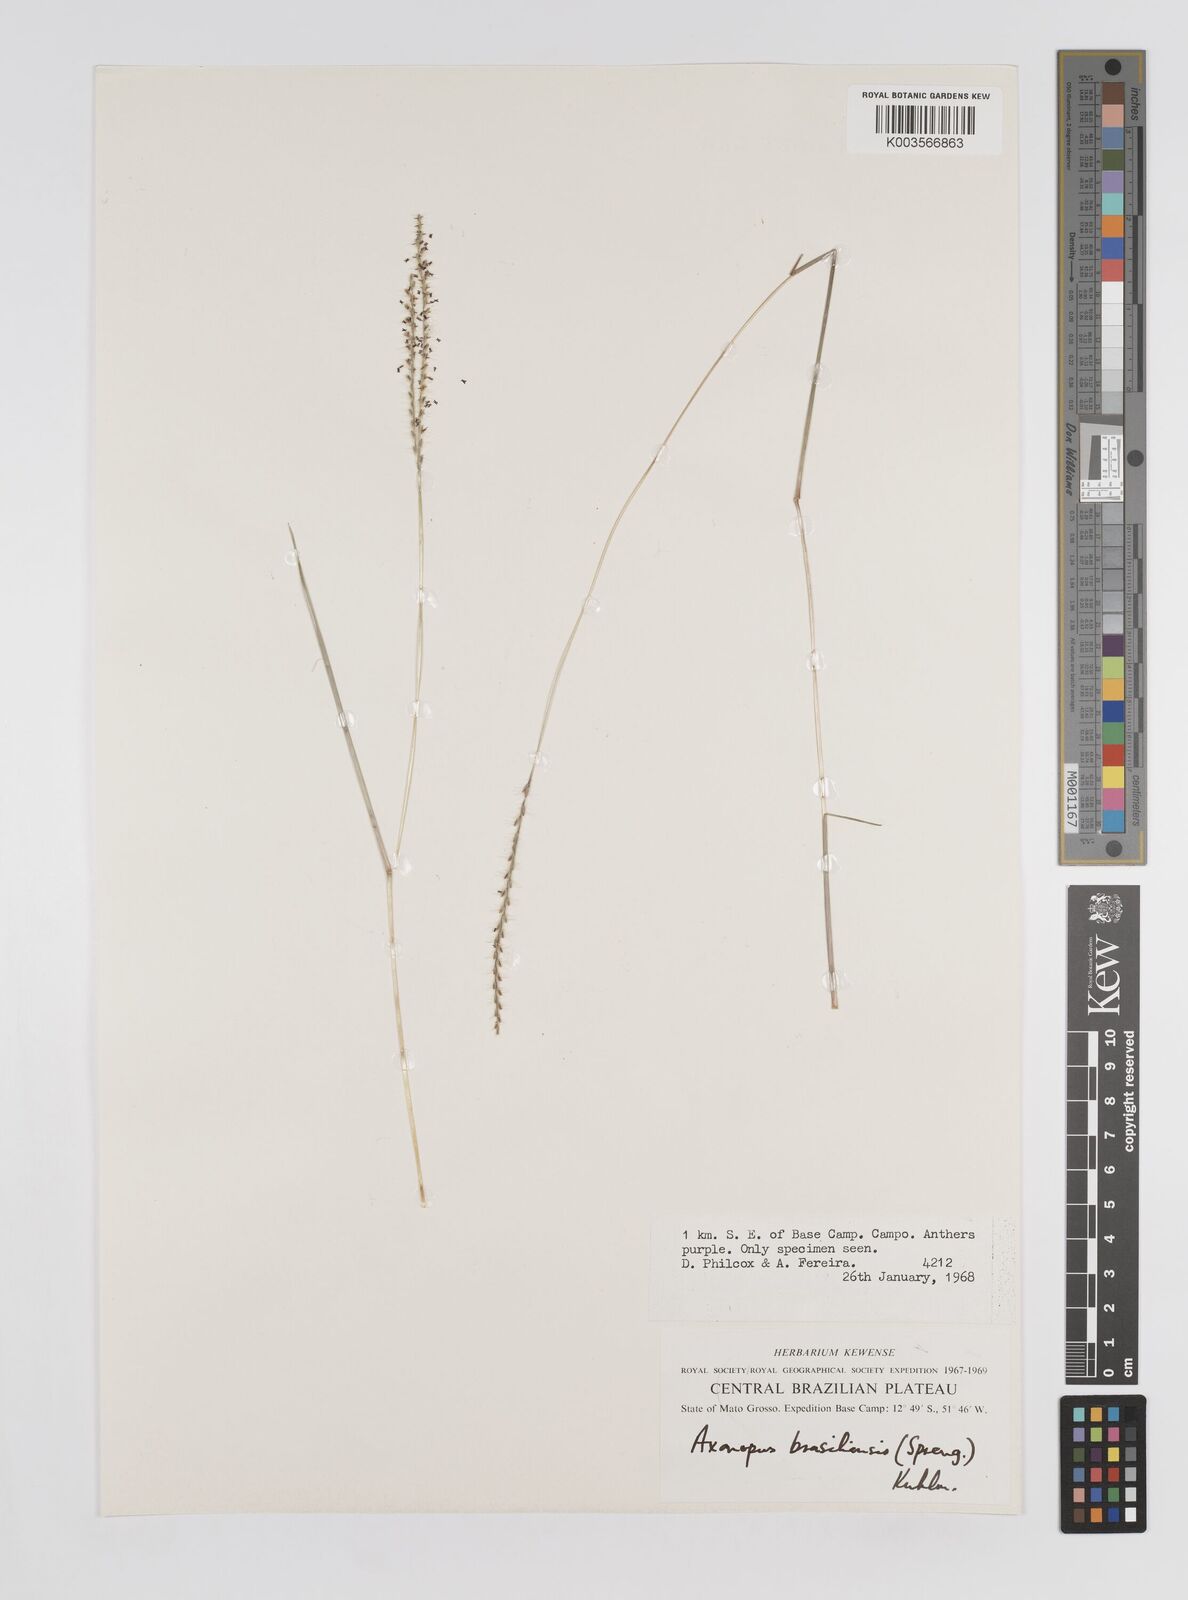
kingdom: Plantae
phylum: Tracheophyta
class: Liliopsida
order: Poales
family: Poaceae
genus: Axonopus
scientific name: Axonopus brasiliensis
